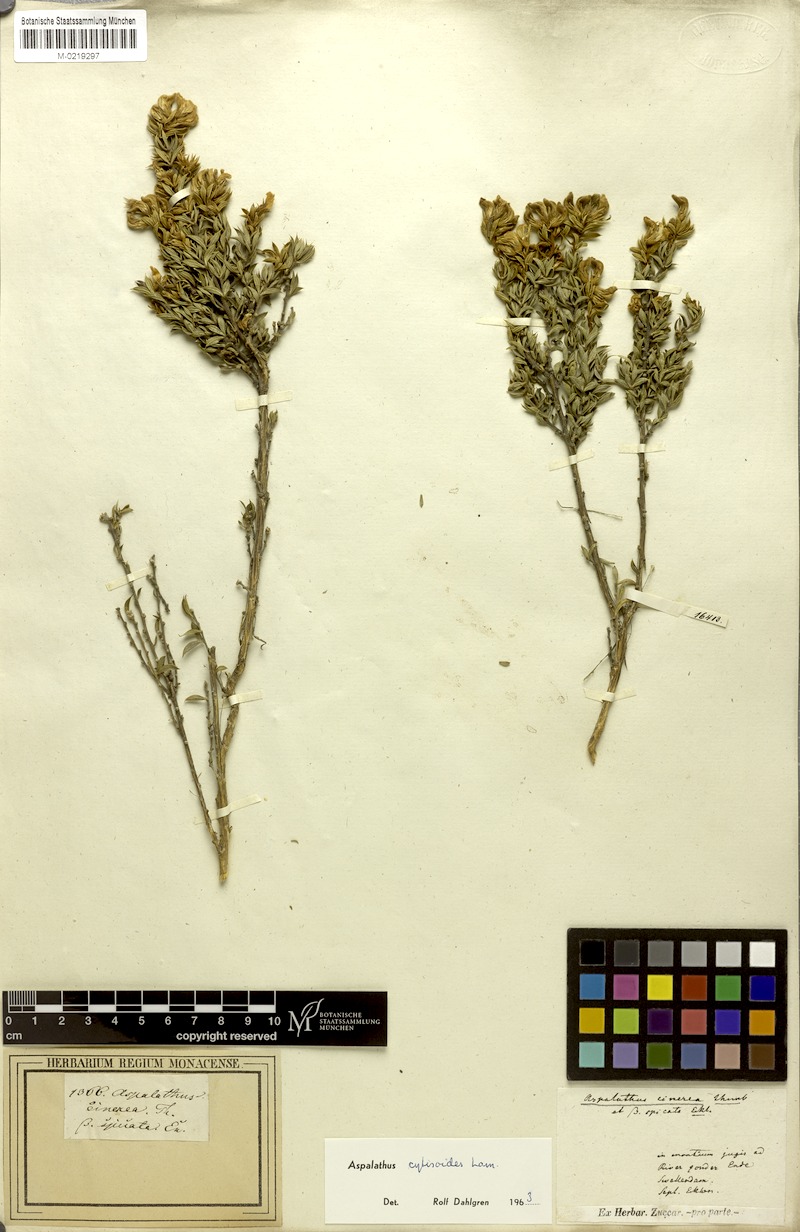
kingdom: Plantae
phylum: Tracheophyta
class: Magnoliopsida
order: Fabales
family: Fabaceae
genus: Aspalathus
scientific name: Aspalathus cytisoides
